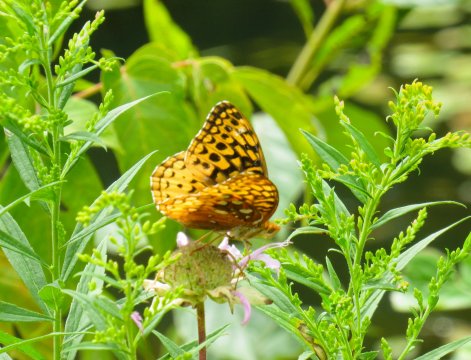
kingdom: Animalia
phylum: Arthropoda
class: Insecta
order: Lepidoptera
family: Nymphalidae
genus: Speyeria
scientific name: Speyeria cybele
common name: Great Spangled Fritillary
